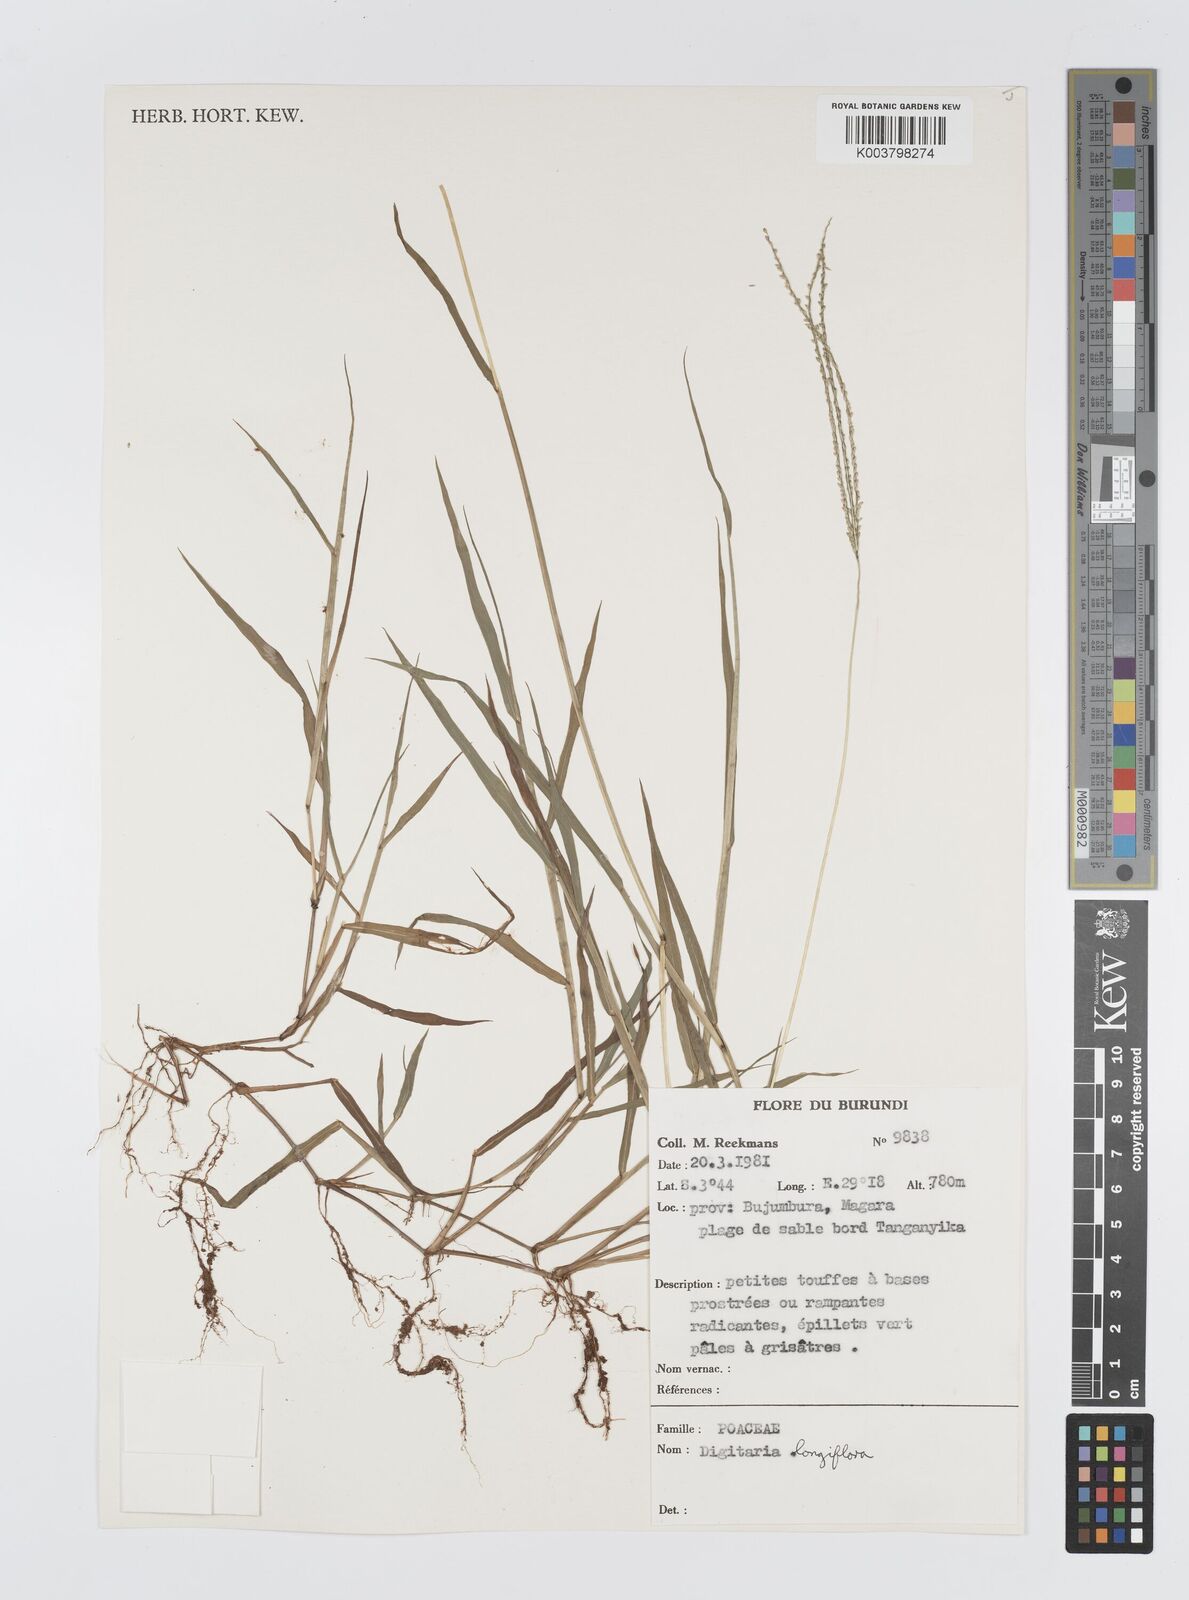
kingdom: Plantae
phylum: Tracheophyta
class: Liliopsida
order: Poales
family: Poaceae
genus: Digitaria
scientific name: Digitaria longiflora
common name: Wire crabgrass
